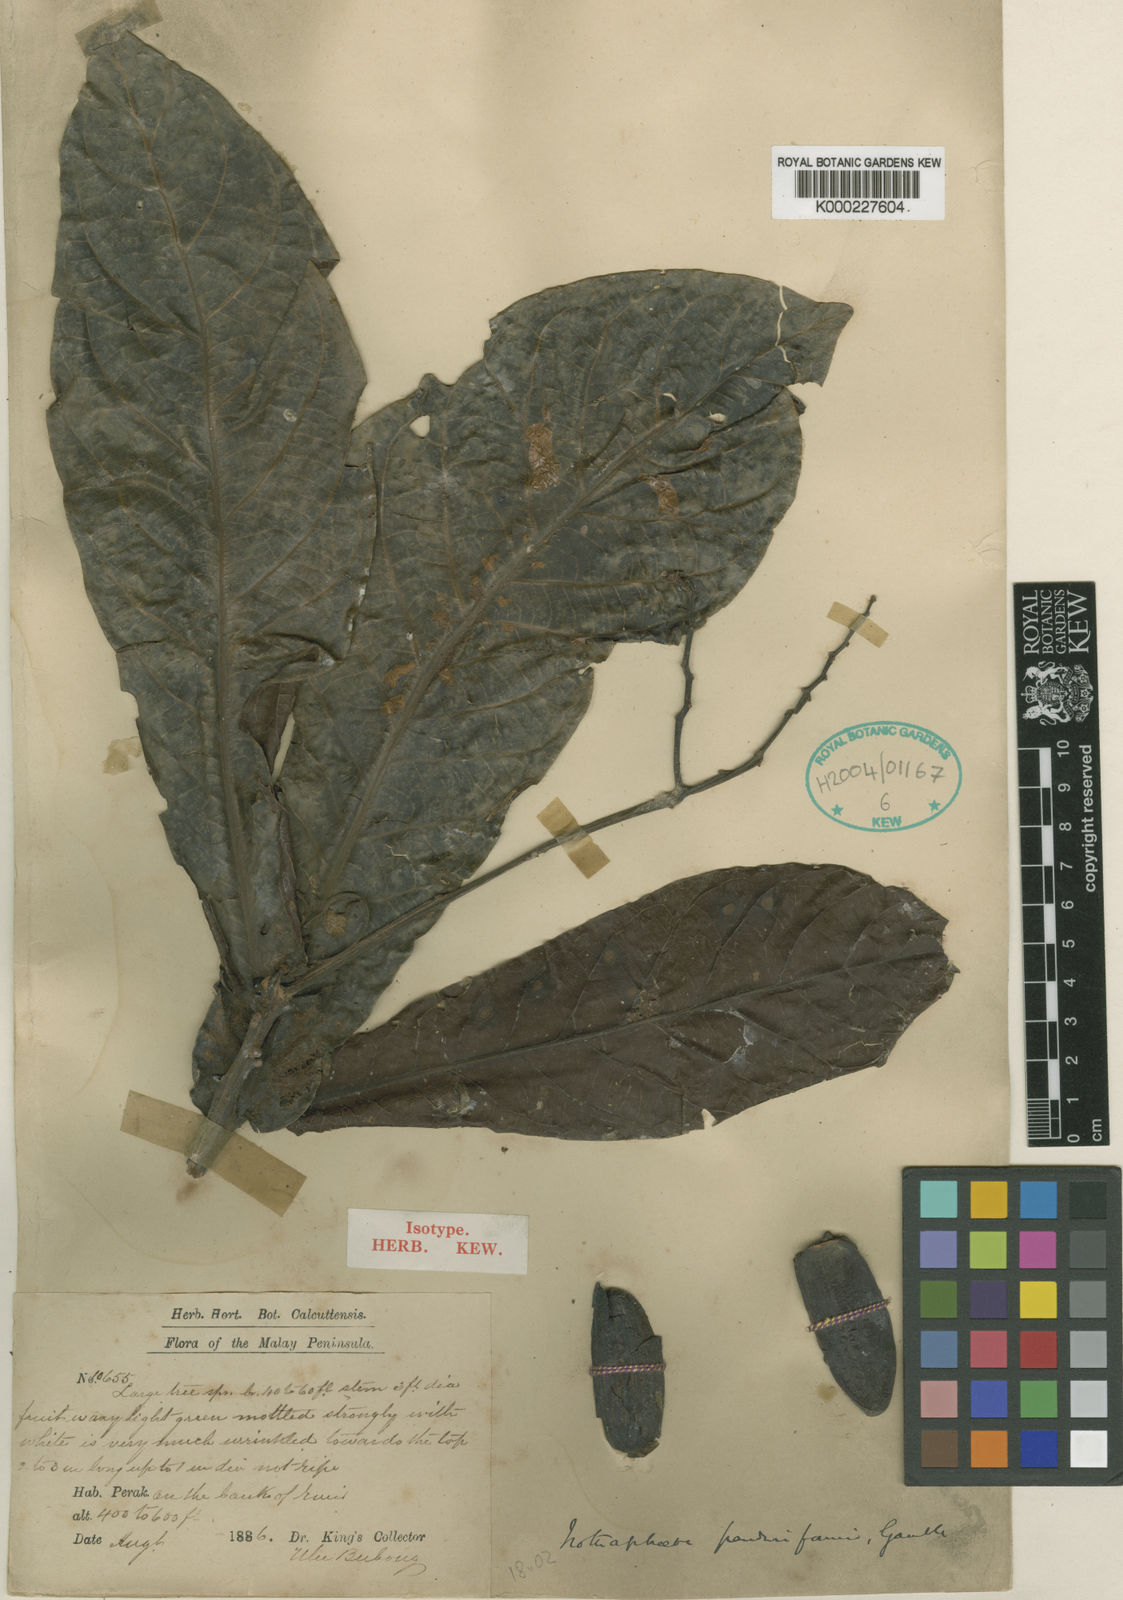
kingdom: Plantae
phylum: Tracheophyta
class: Magnoliopsida
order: Laurales
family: Lauraceae
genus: Alseodaphne
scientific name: Alseodaphne panduriformis
